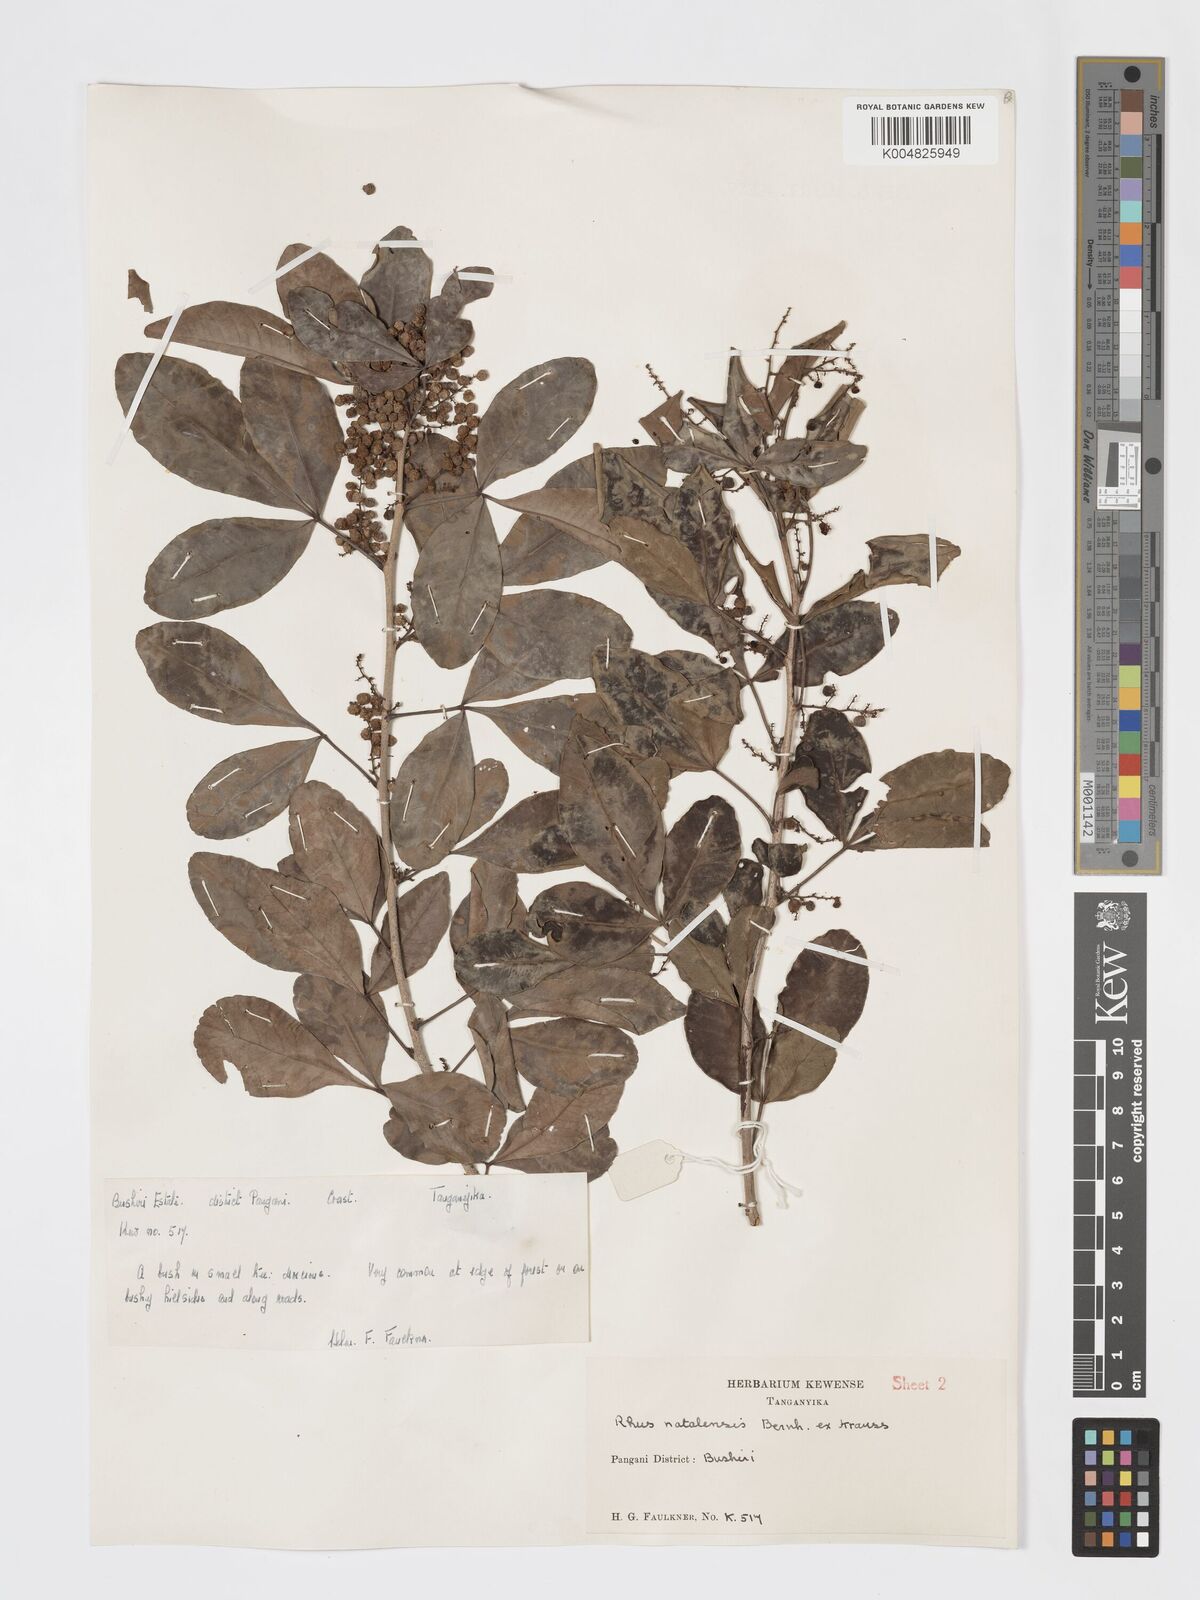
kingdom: Plantae
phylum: Tracheophyta
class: Magnoliopsida
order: Sapindales
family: Anacardiaceae
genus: Searsia
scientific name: Searsia natalensis
